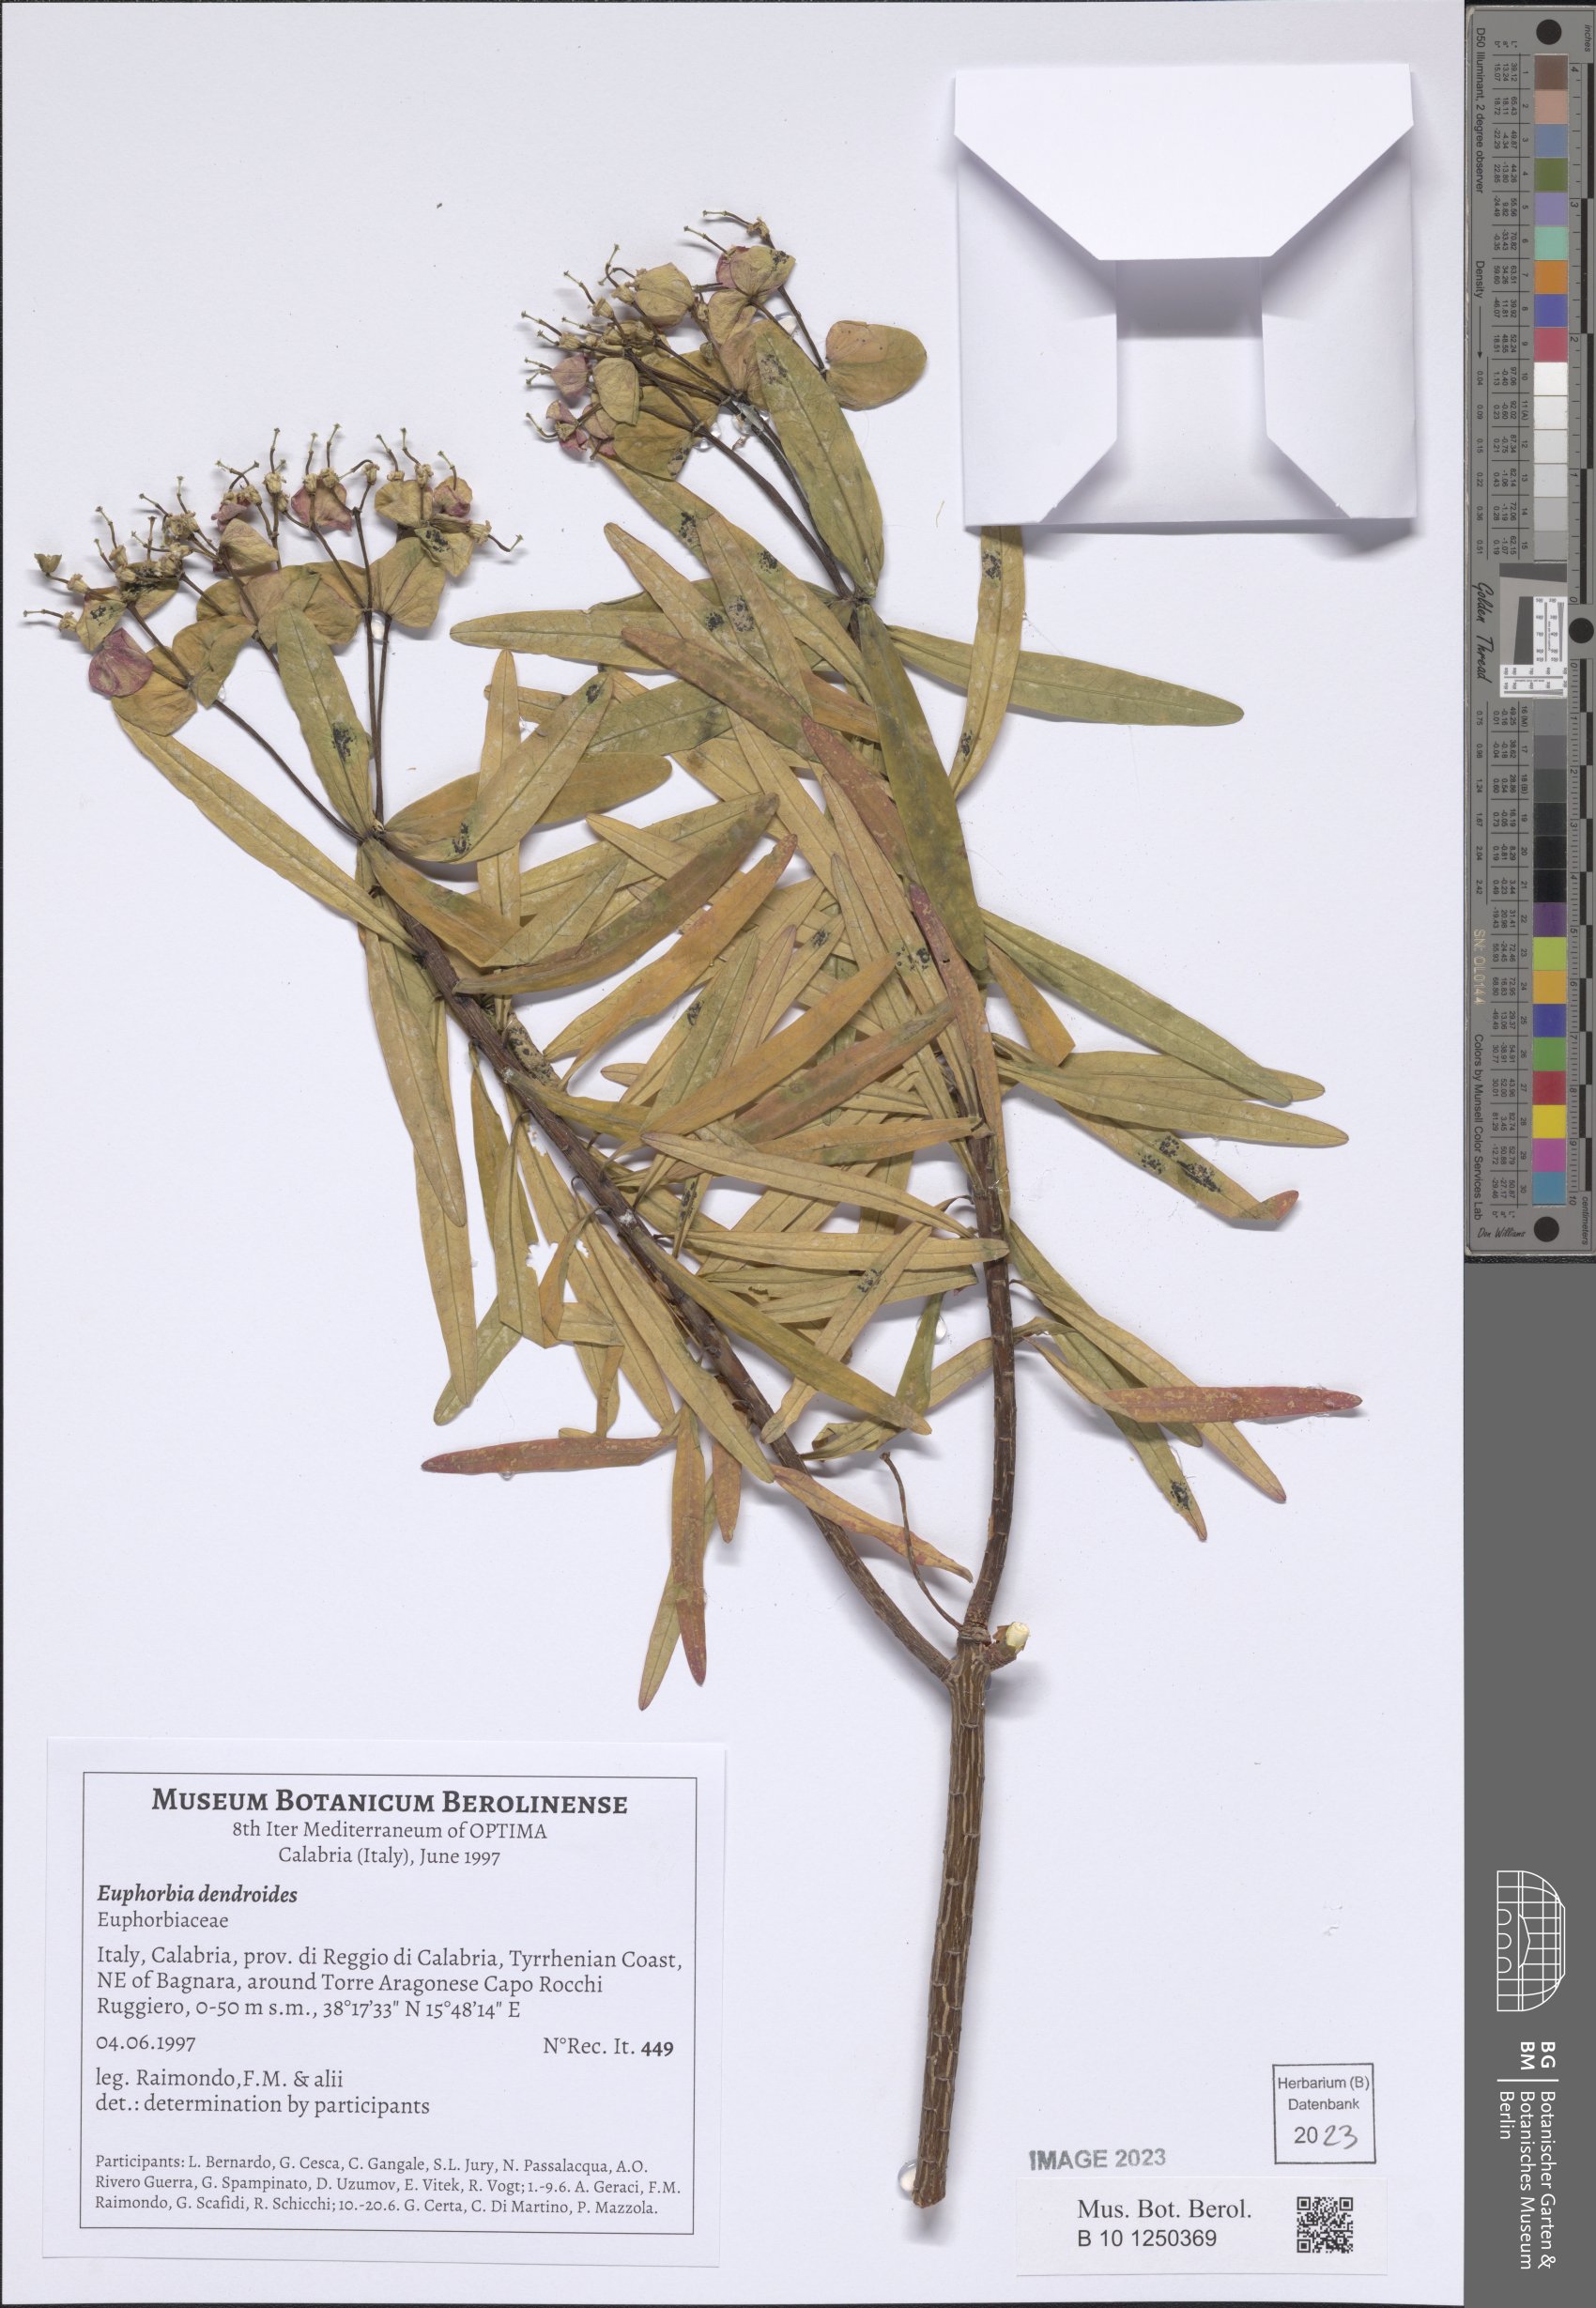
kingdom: Plantae
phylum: Tracheophyta
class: Magnoliopsida
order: Malpighiales
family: Euphorbiaceae
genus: Euphorbia
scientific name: Euphorbia dendroides
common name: Tree spurge
